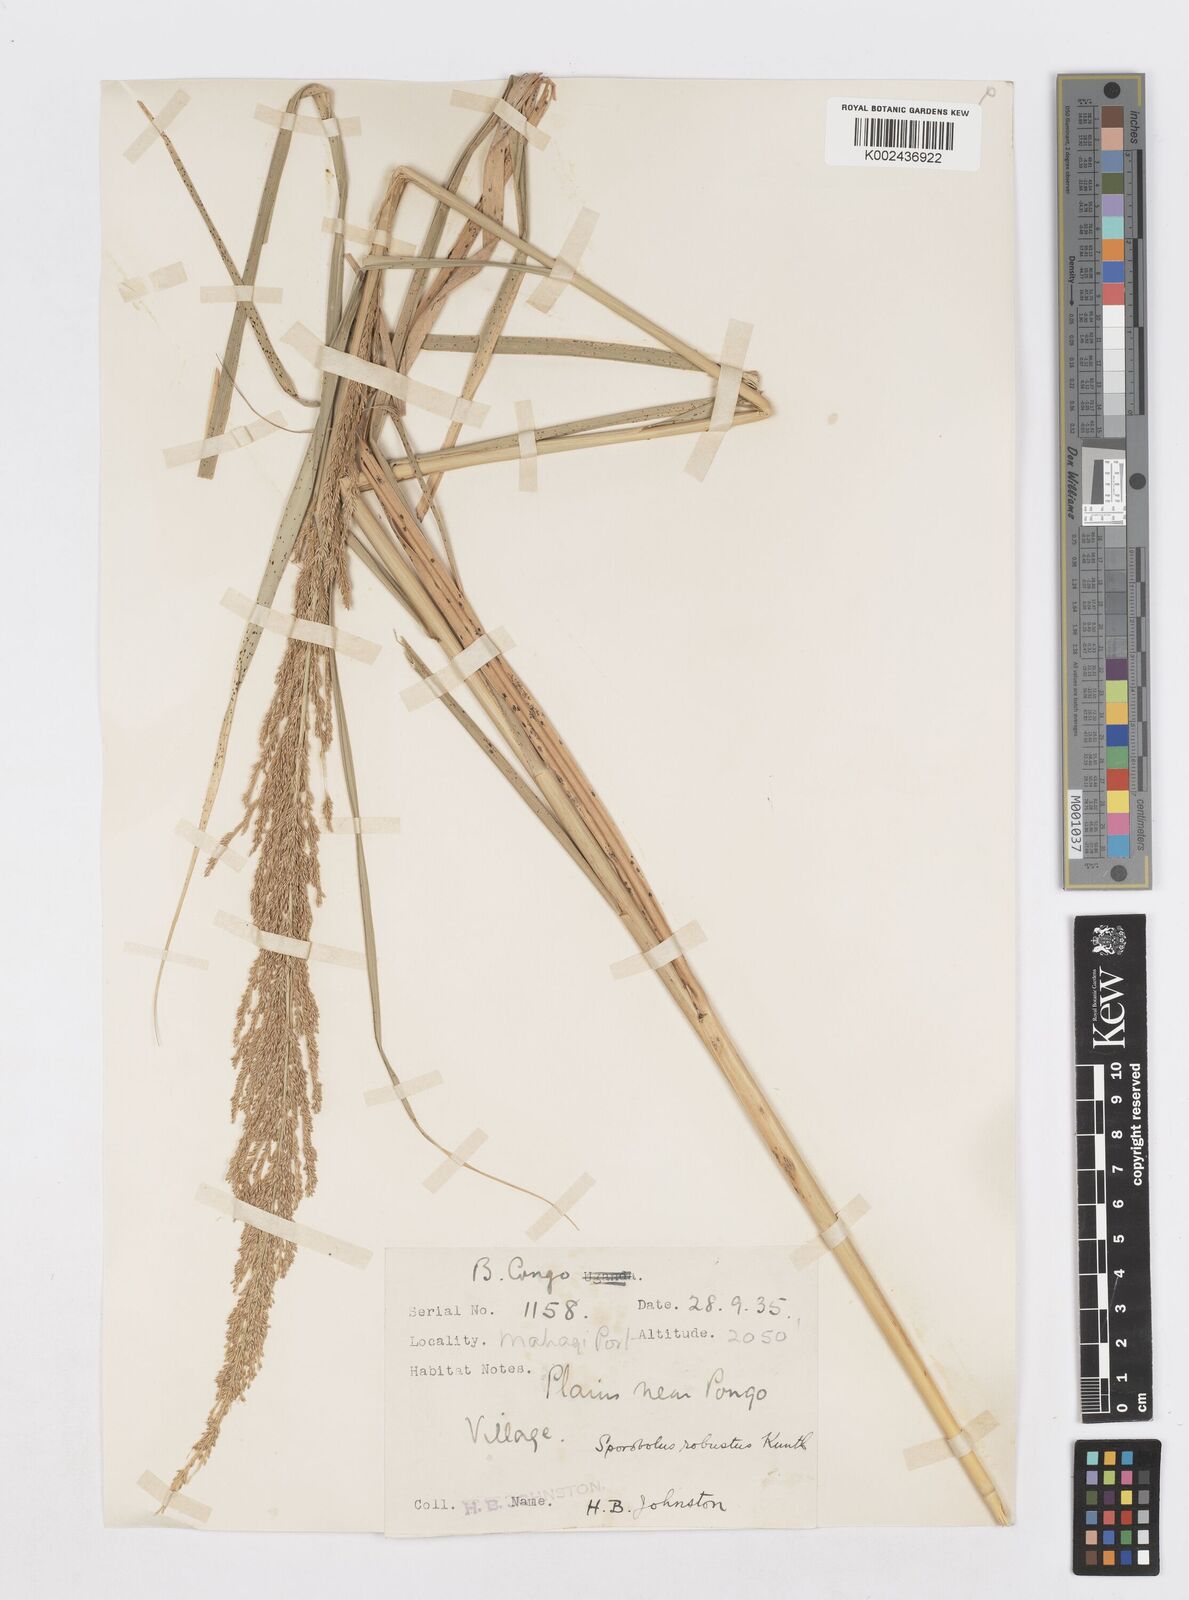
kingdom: Plantae
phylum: Tracheophyta
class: Liliopsida
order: Poales
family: Poaceae
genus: Sporobolus
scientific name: Sporobolus consimilis
